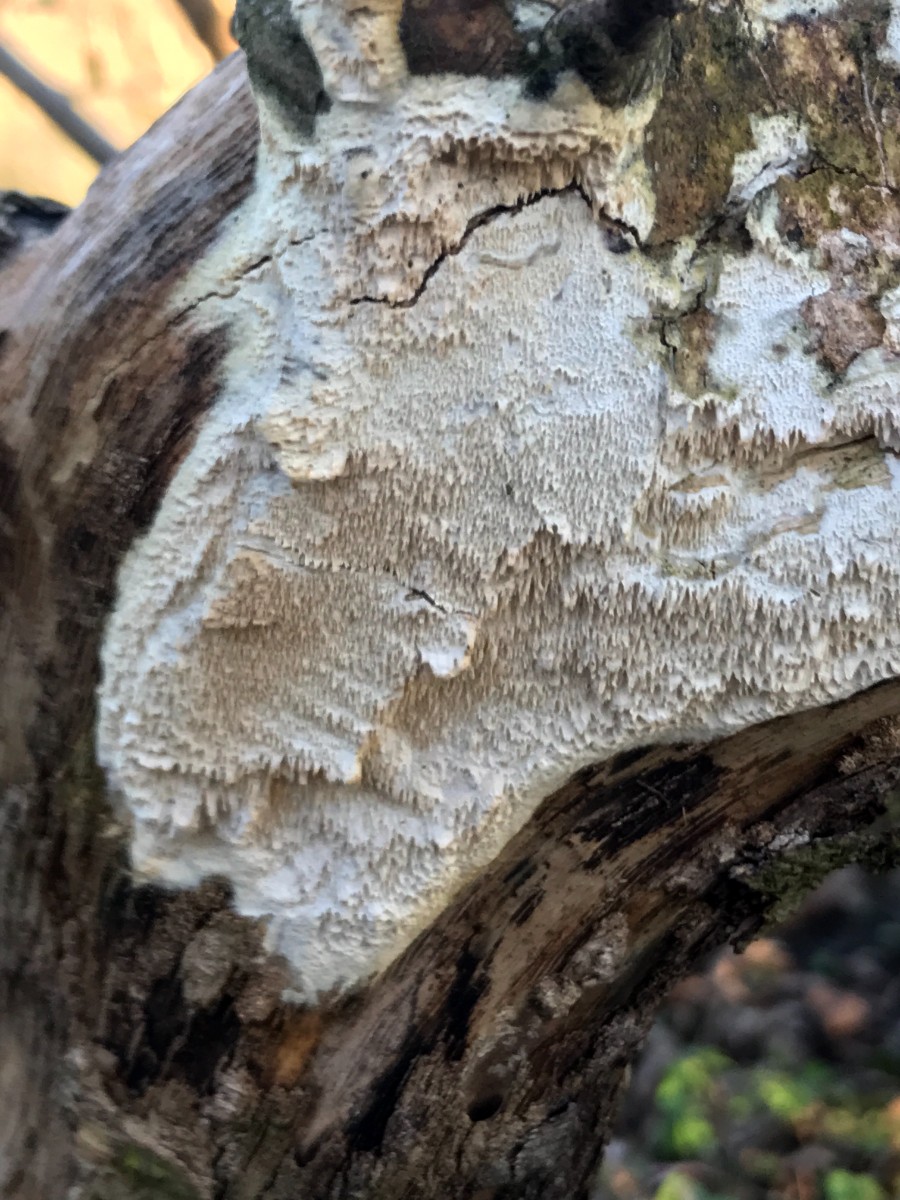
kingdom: Fungi
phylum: Basidiomycota
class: Agaricomycetes
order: Hymenochaetales
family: Schizoporaceae
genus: Schizopora
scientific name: Schizopora paradoxa
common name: hvid tandsvamp
